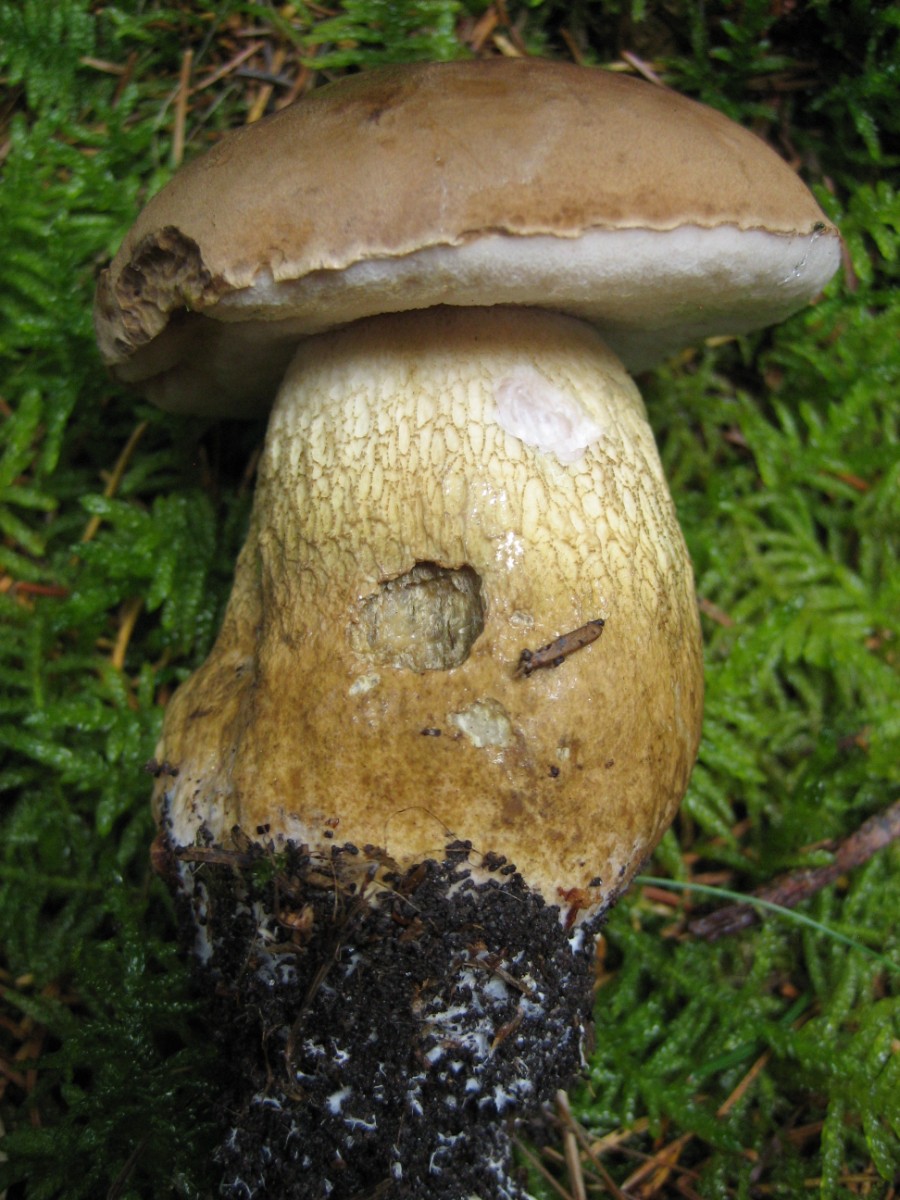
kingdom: Fungi
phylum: Basidiomycota
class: Agaricomycetes
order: Boletales
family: Boletaceae
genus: Tylopilus
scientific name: Tylopilus felleus
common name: galderørhat
